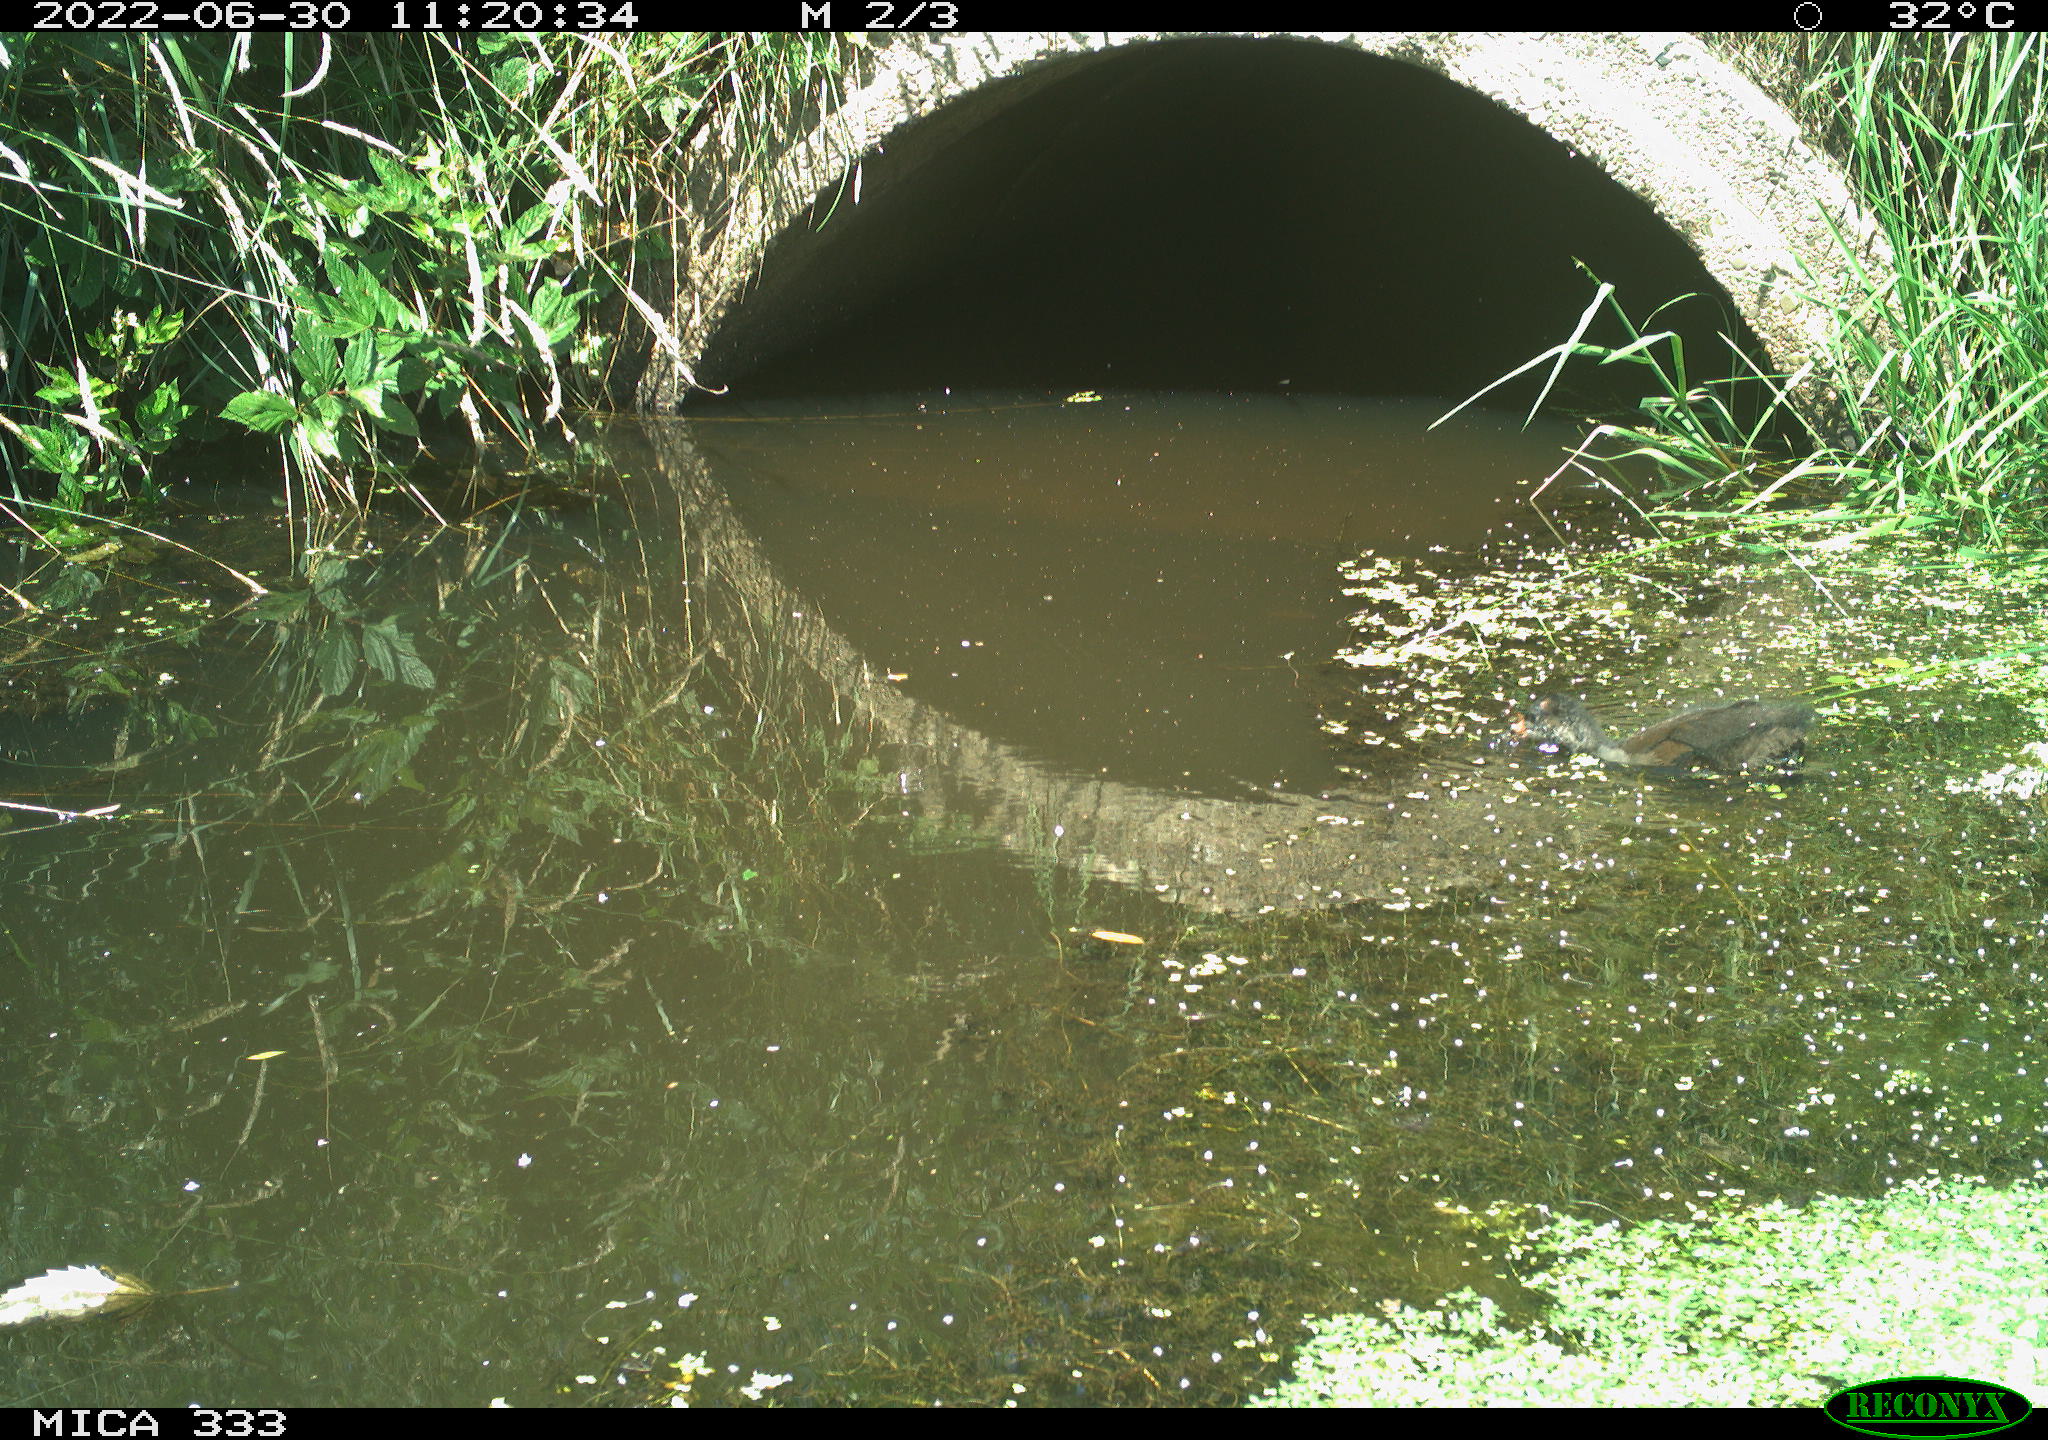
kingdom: Animalia
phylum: Chordata
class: Aves
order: Gruiformes
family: Rallidae
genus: Gallinula
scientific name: Gallinula chloropus
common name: Common moorhen
